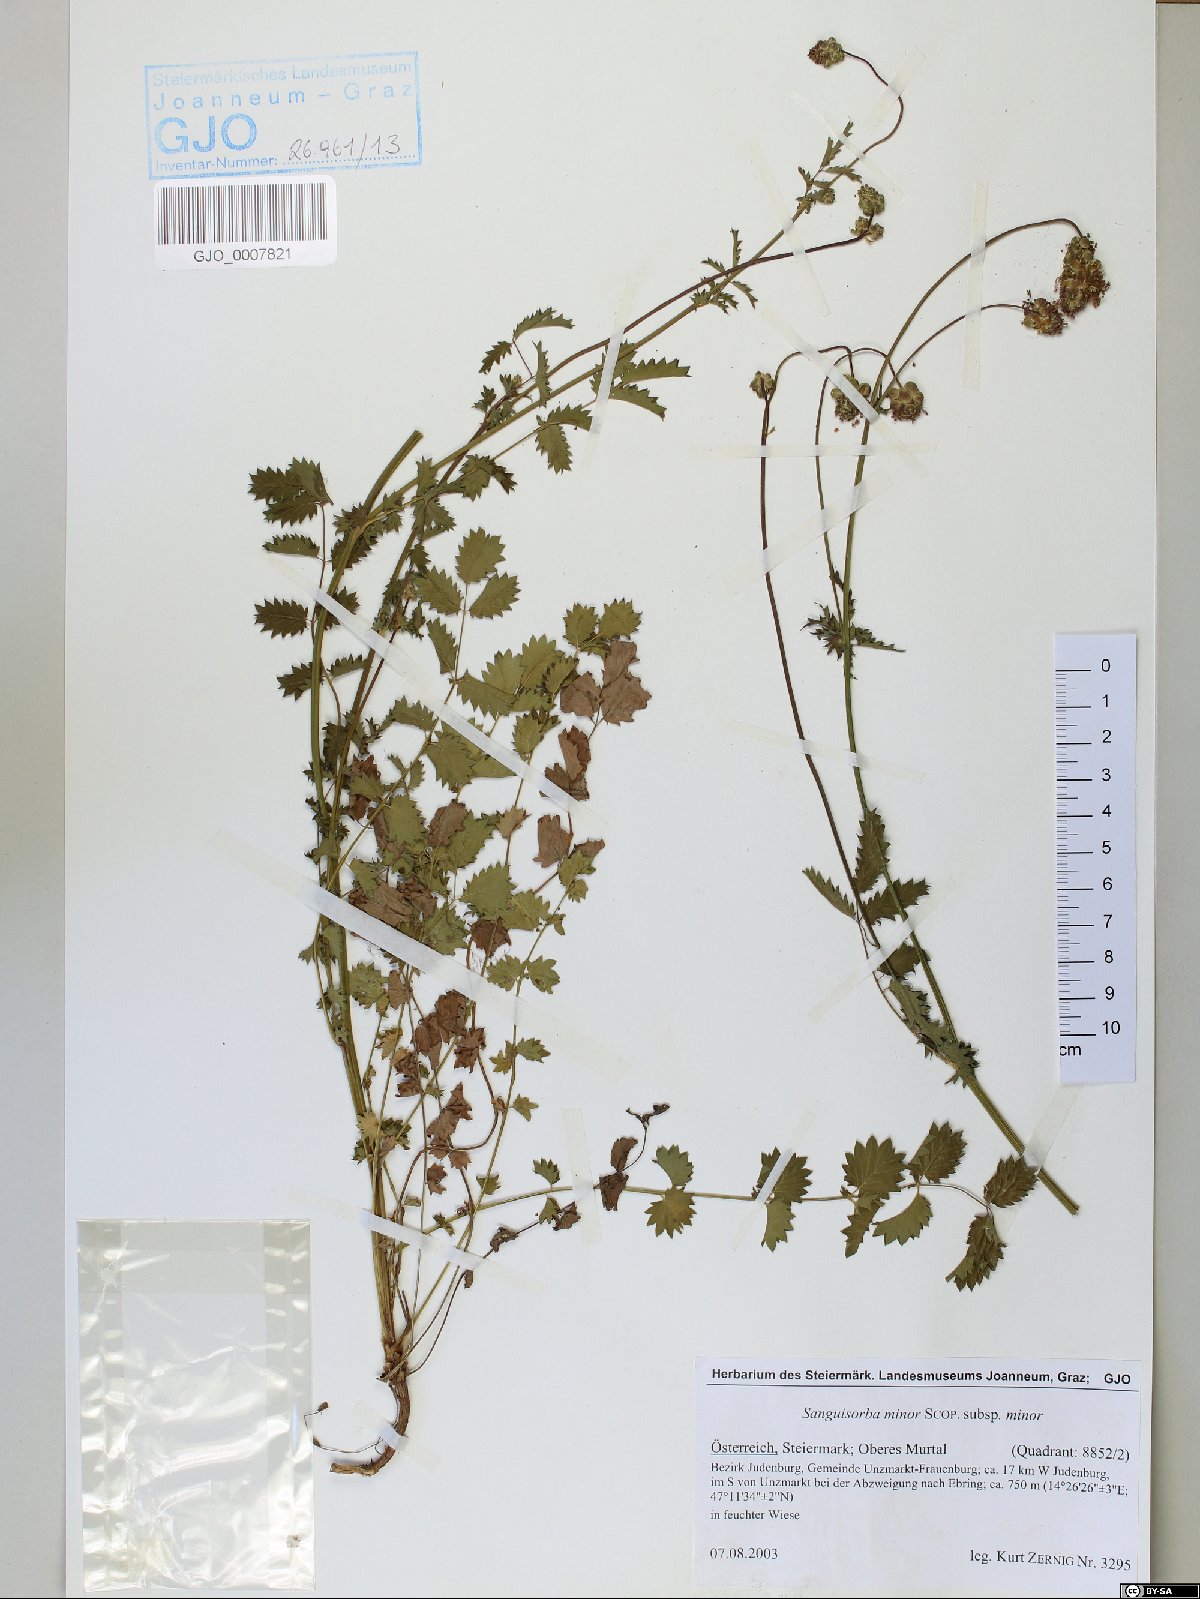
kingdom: Plantae
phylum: Tracheophyta
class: Magnoliopsida
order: Rosales
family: Rosaceae
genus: Poterium
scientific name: Poterium sanguisorba
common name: Salad burnet
